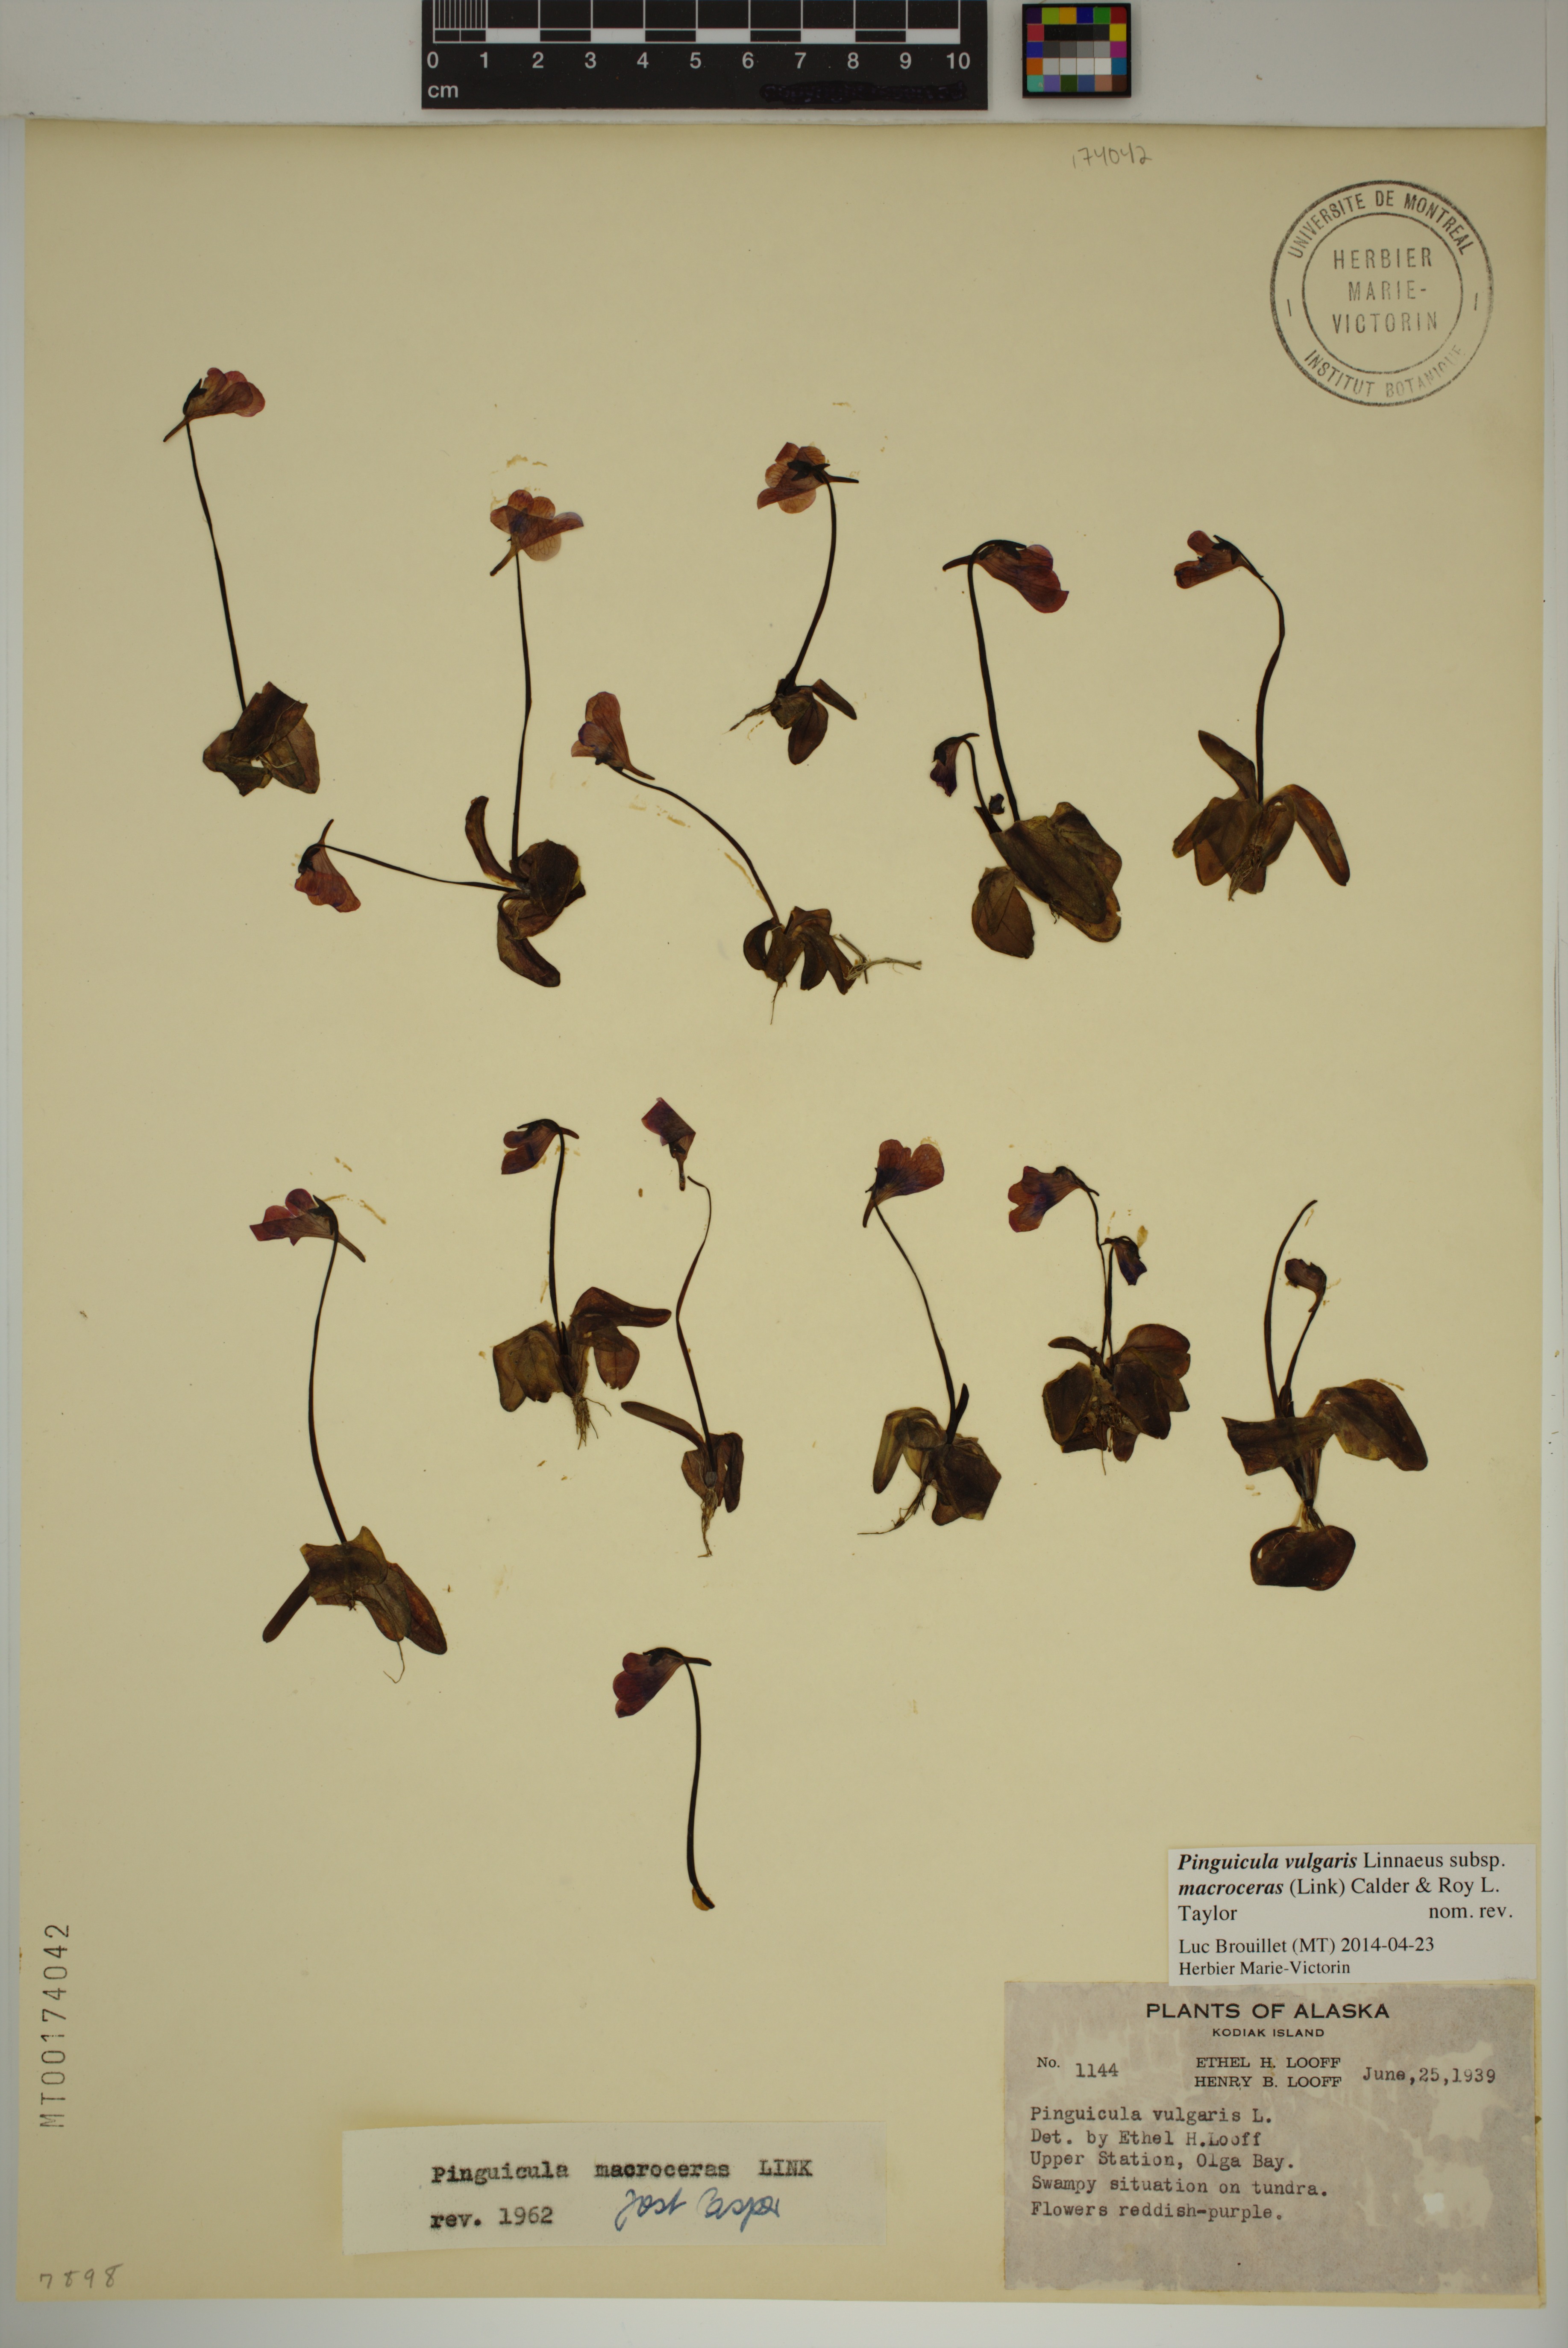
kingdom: Plantae
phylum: Tracheophyta
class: Magnoliopsida
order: Lamiales
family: Lentibulariaceae
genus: Pinguicula
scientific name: Pinguicula macroceras
